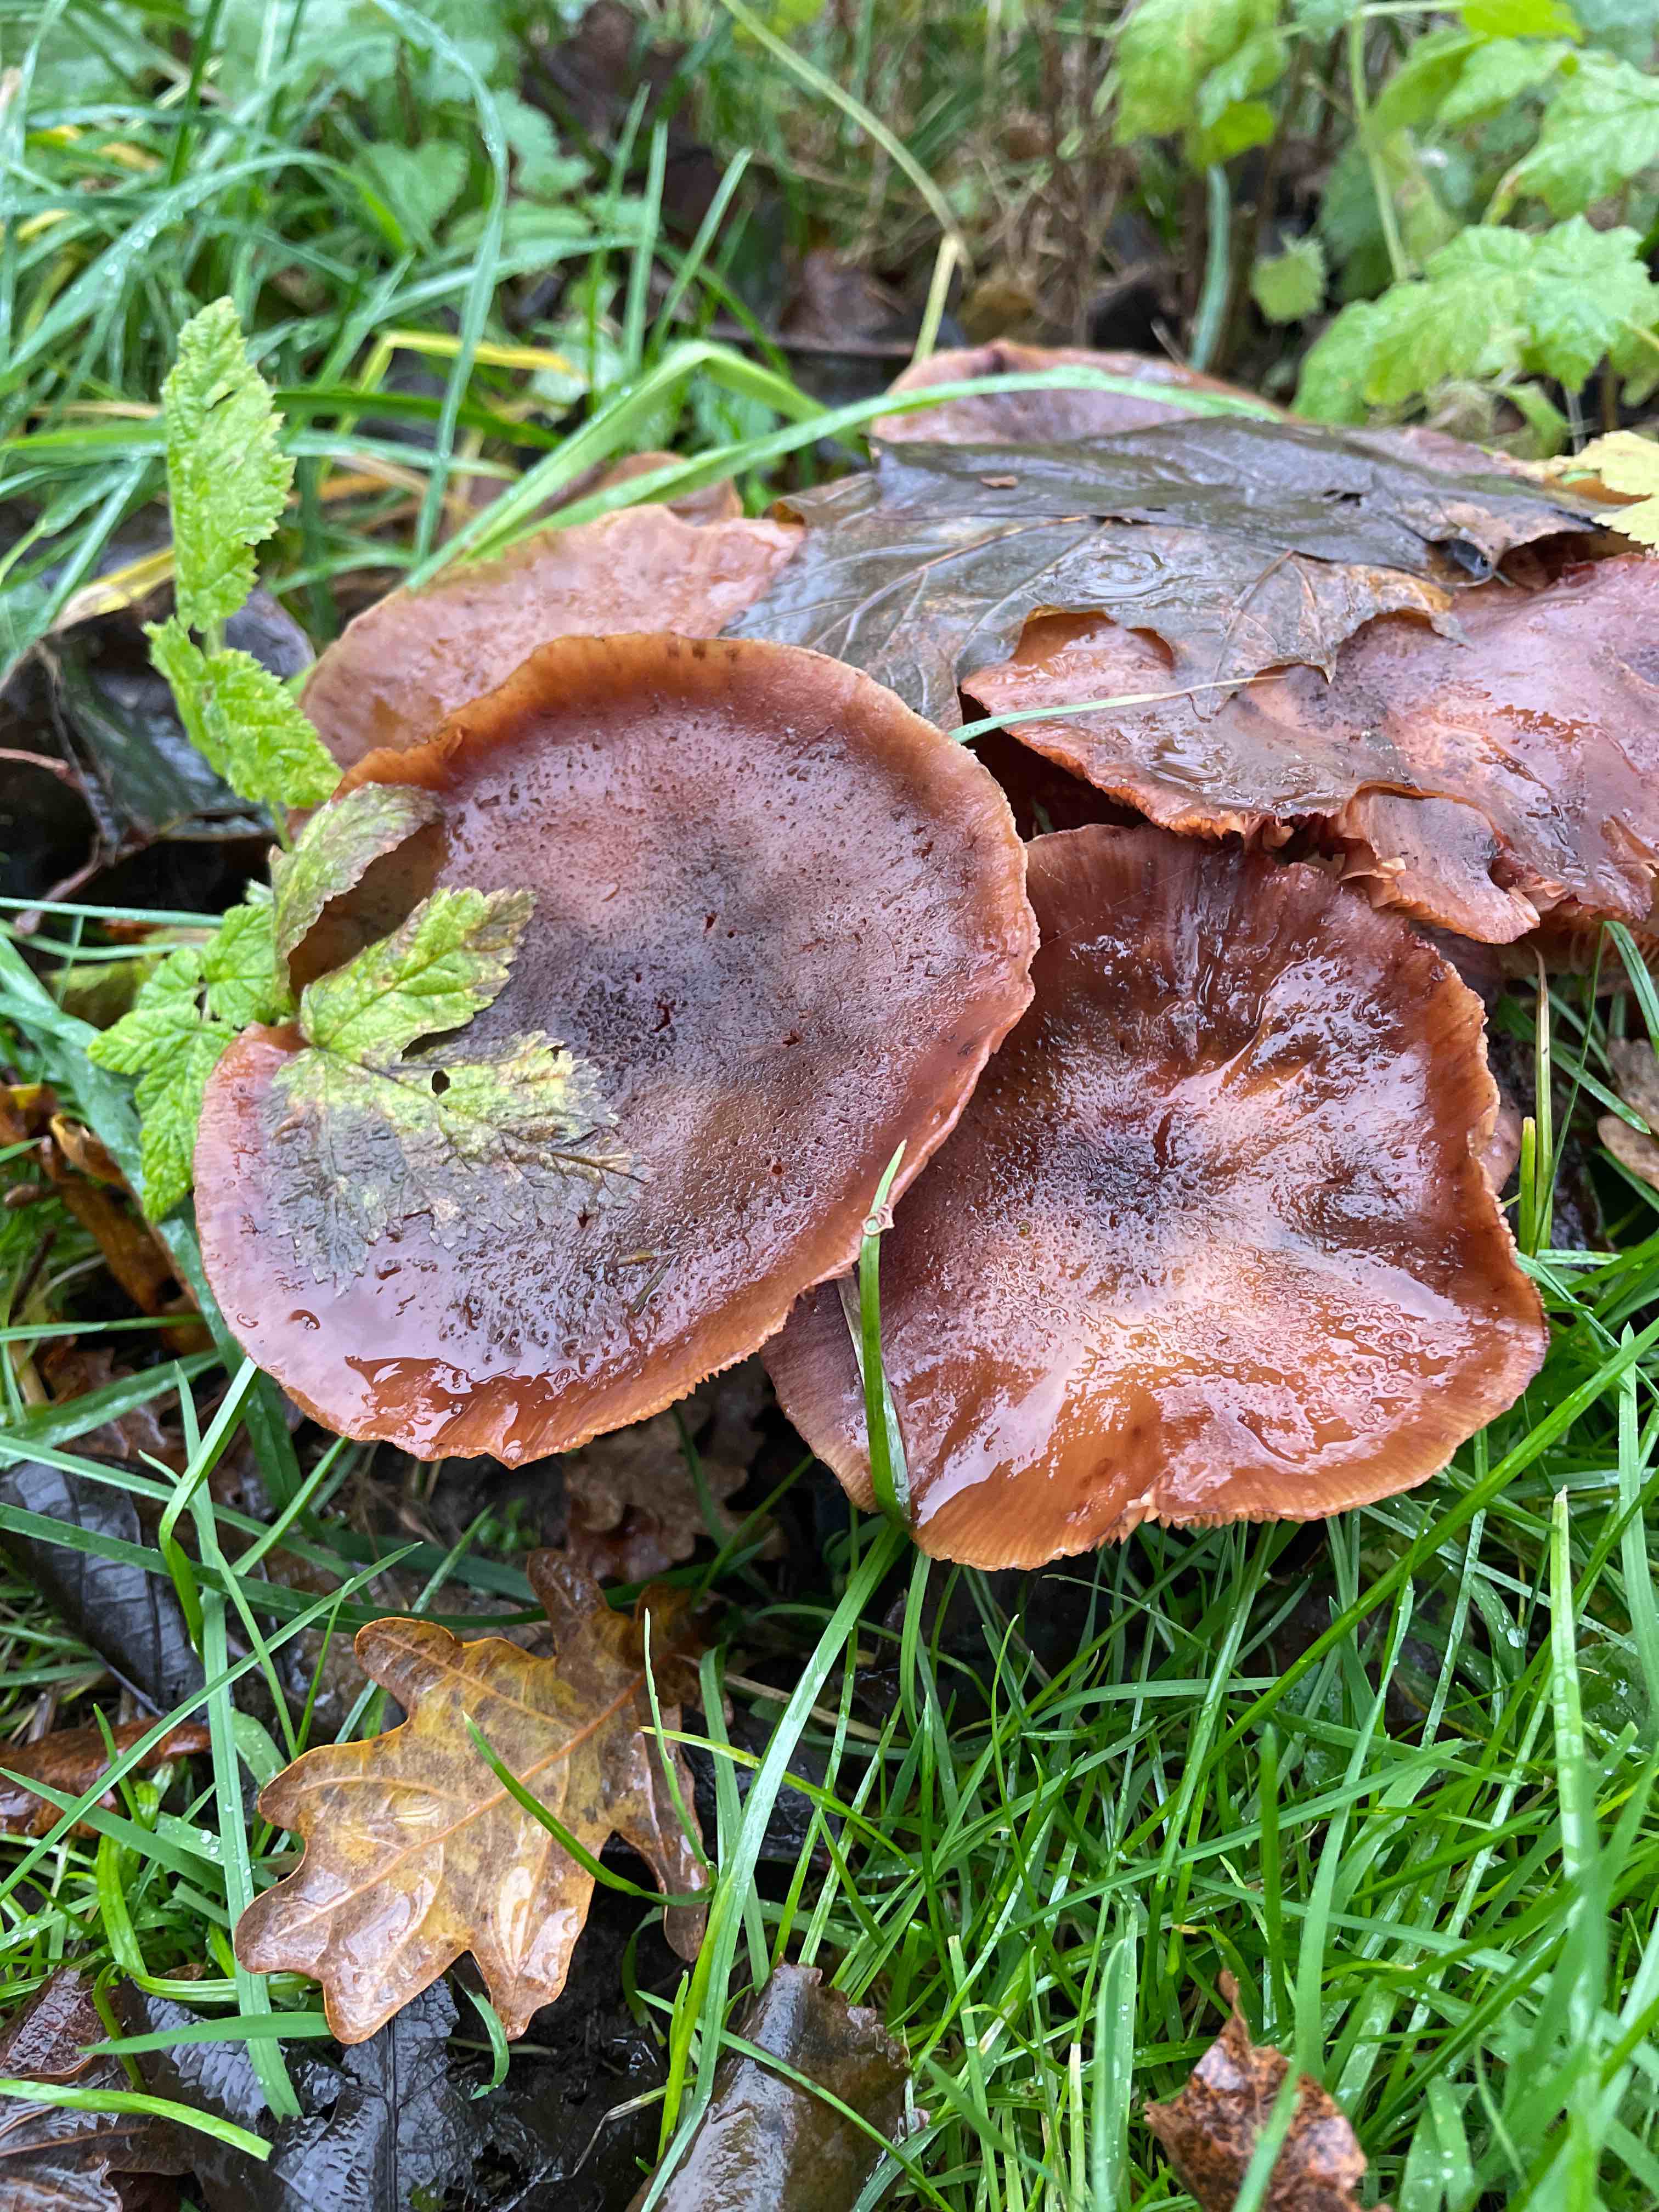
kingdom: Fungi
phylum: Basidiomycota
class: Agaricomycetes
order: Agaricales
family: Physalacriaceae
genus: Armillaria
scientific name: Armillaria
